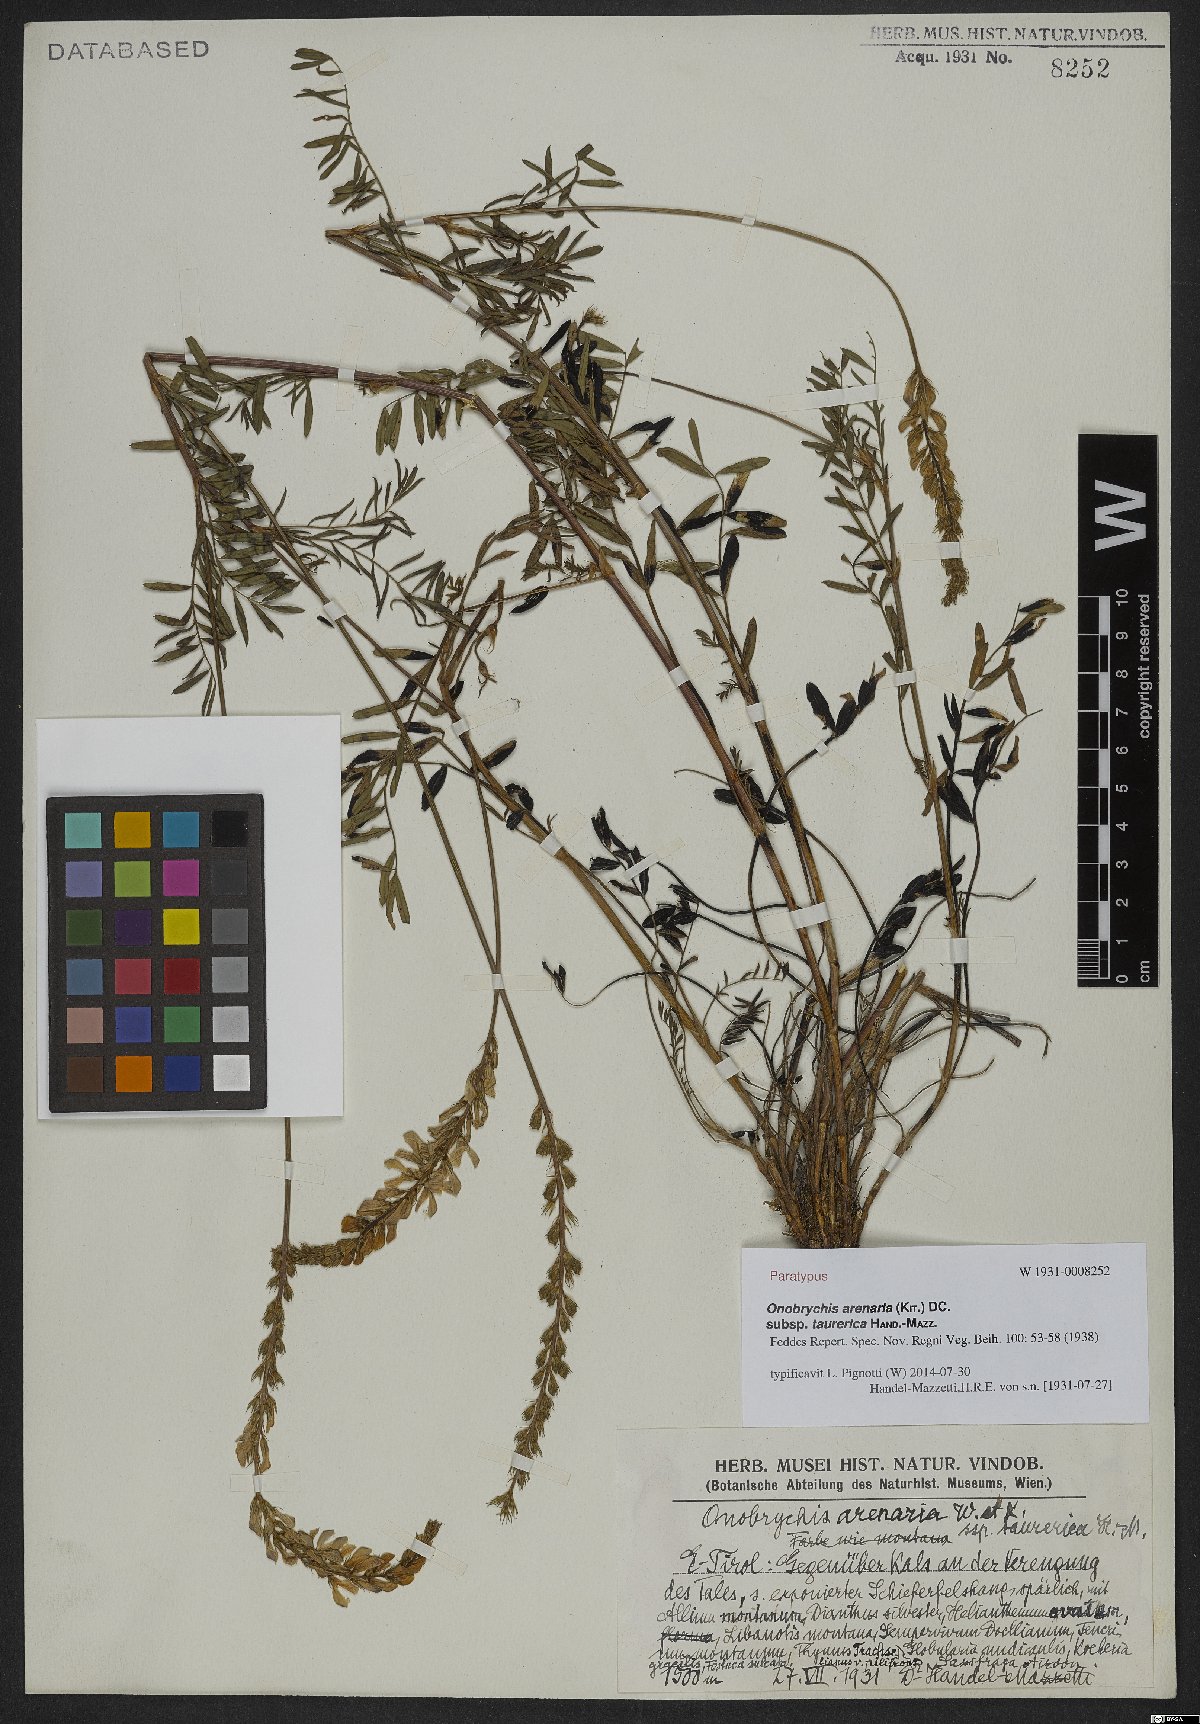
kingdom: Plantae
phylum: Tracheophyta
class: Magnoliopsida
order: Fabales
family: Fabaceae
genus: Onobrychis
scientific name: Onobrychis arenaria
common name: Sand esparcet
